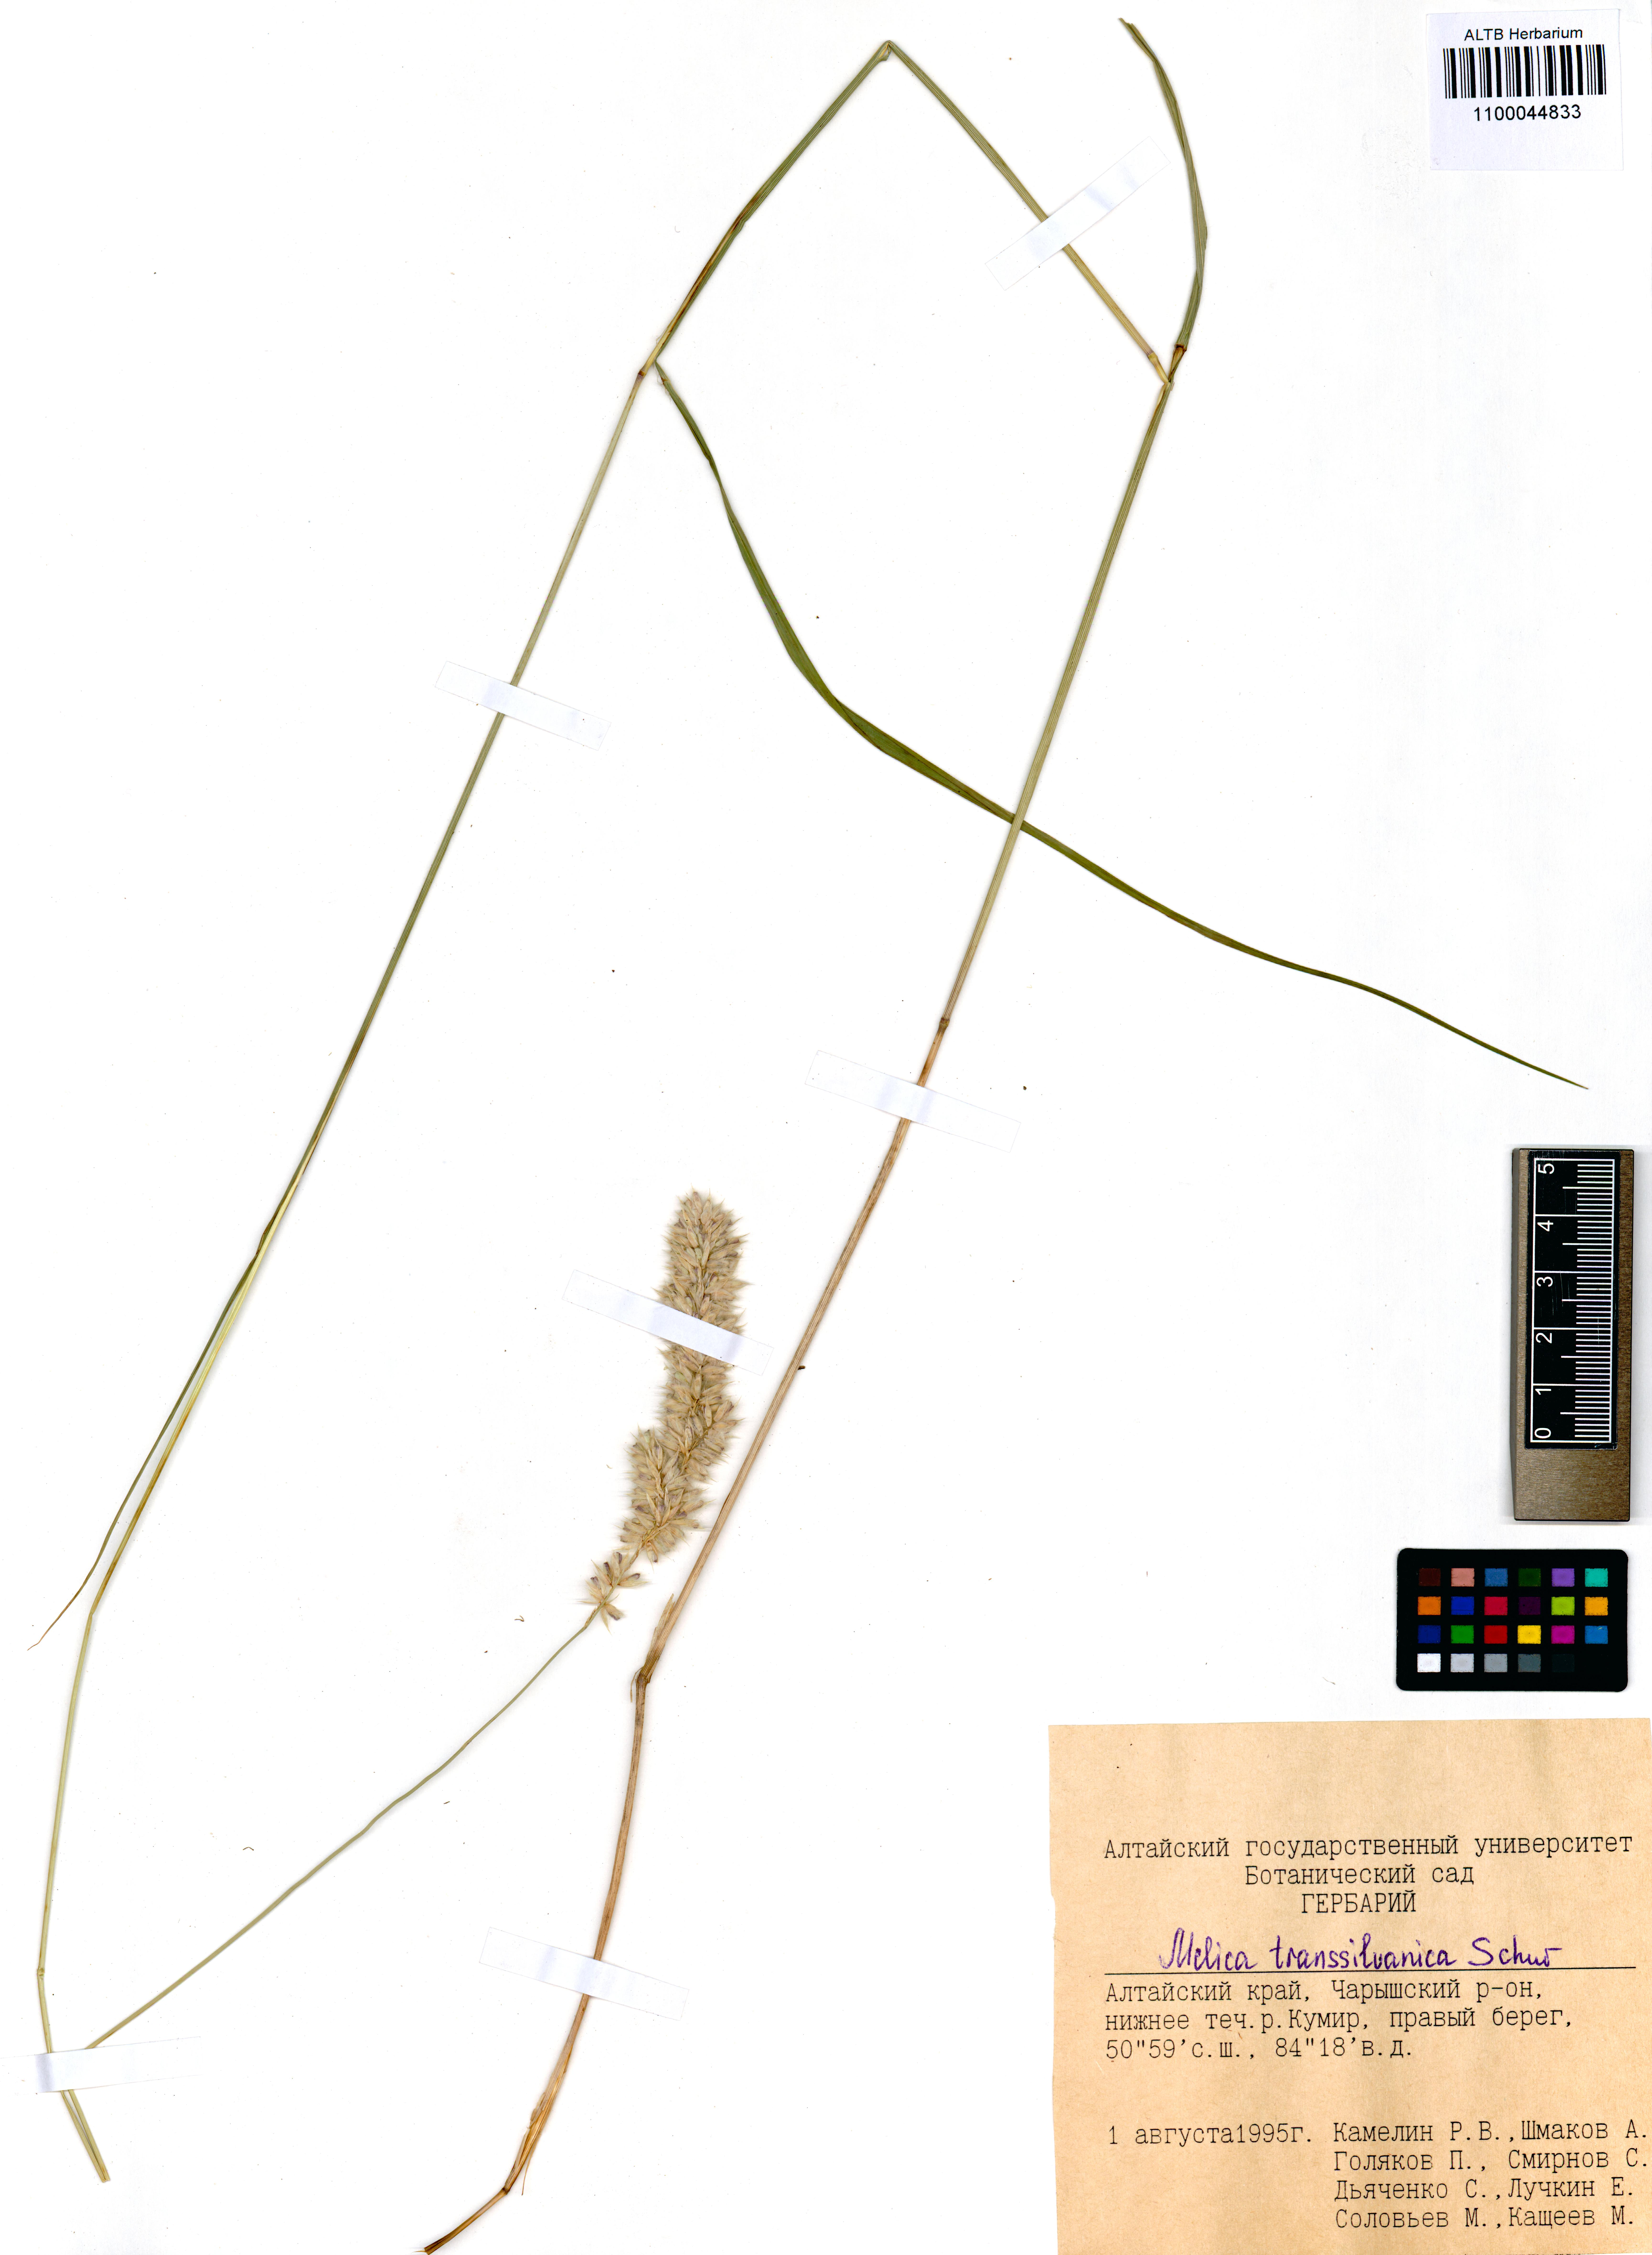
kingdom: Plantae
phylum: Tracheophyta
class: Liliopsida
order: Poales
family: Poaceae
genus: Melica
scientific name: Melica transsilvanica
